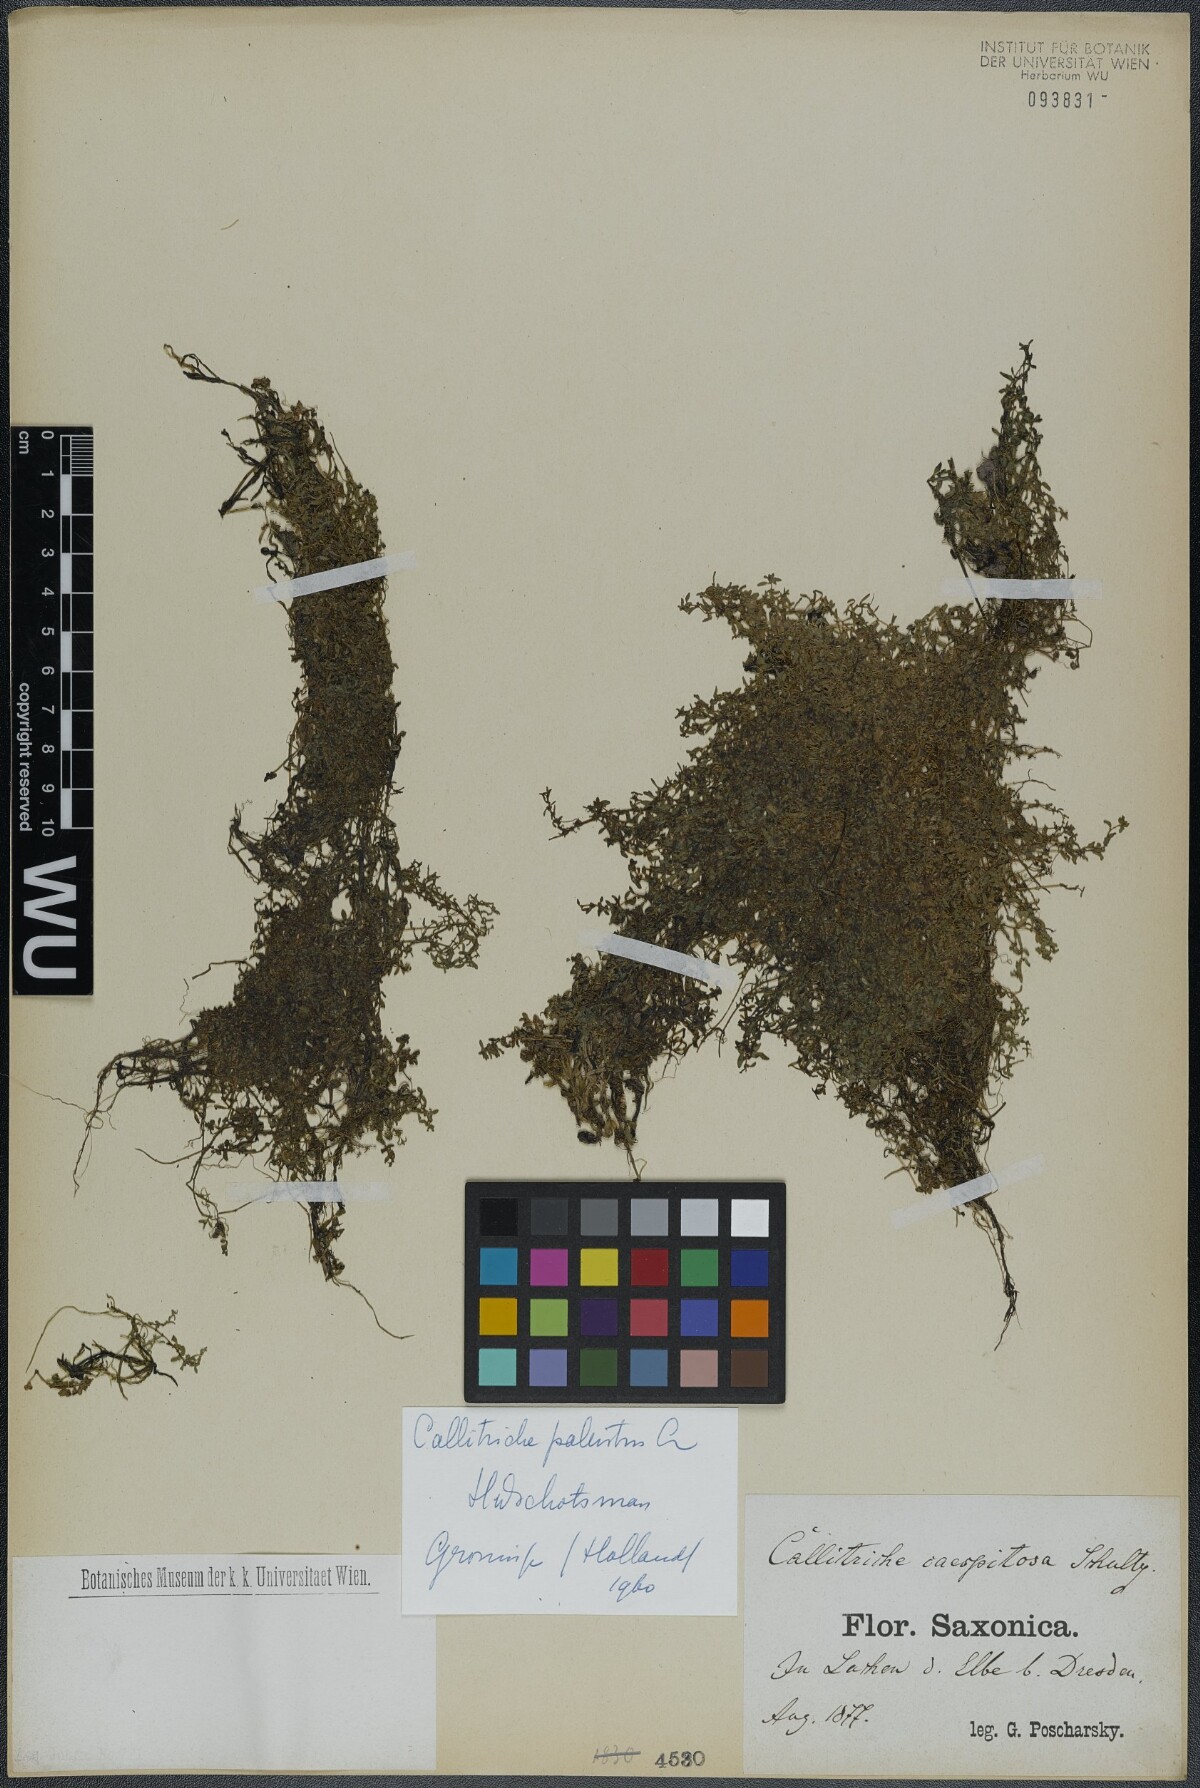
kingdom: Plantae
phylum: Tracheophyta
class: Magnoliopsida
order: Lamiales
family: Plantaginaceae
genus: Callitriche
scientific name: Callitriche palustris
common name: Spring water-starwort
